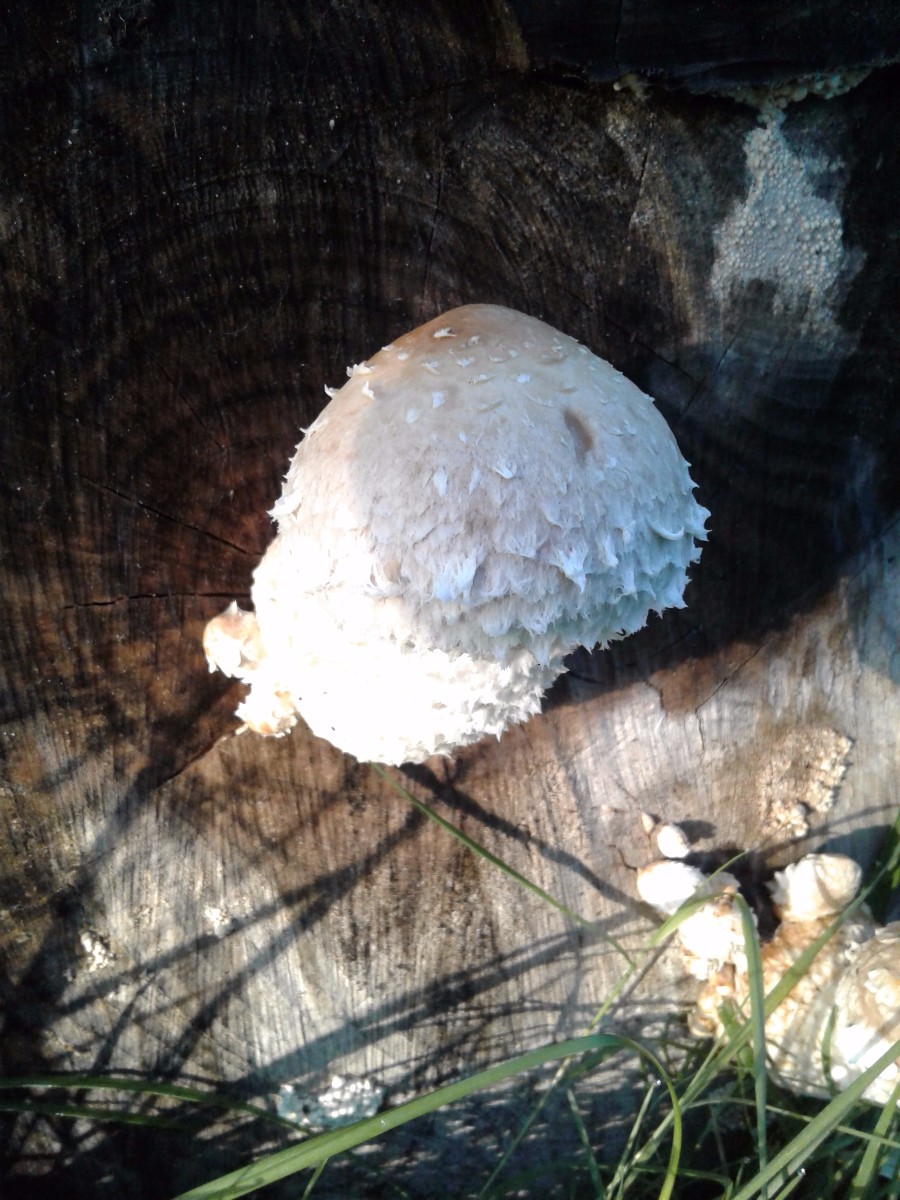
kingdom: Fungi
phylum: Basidiomycota
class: Agaricomycetes
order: Agaricales
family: Strophariaceae
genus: Pholiota
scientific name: Pholiota populnea
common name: poppel-kæmpeskælhat
